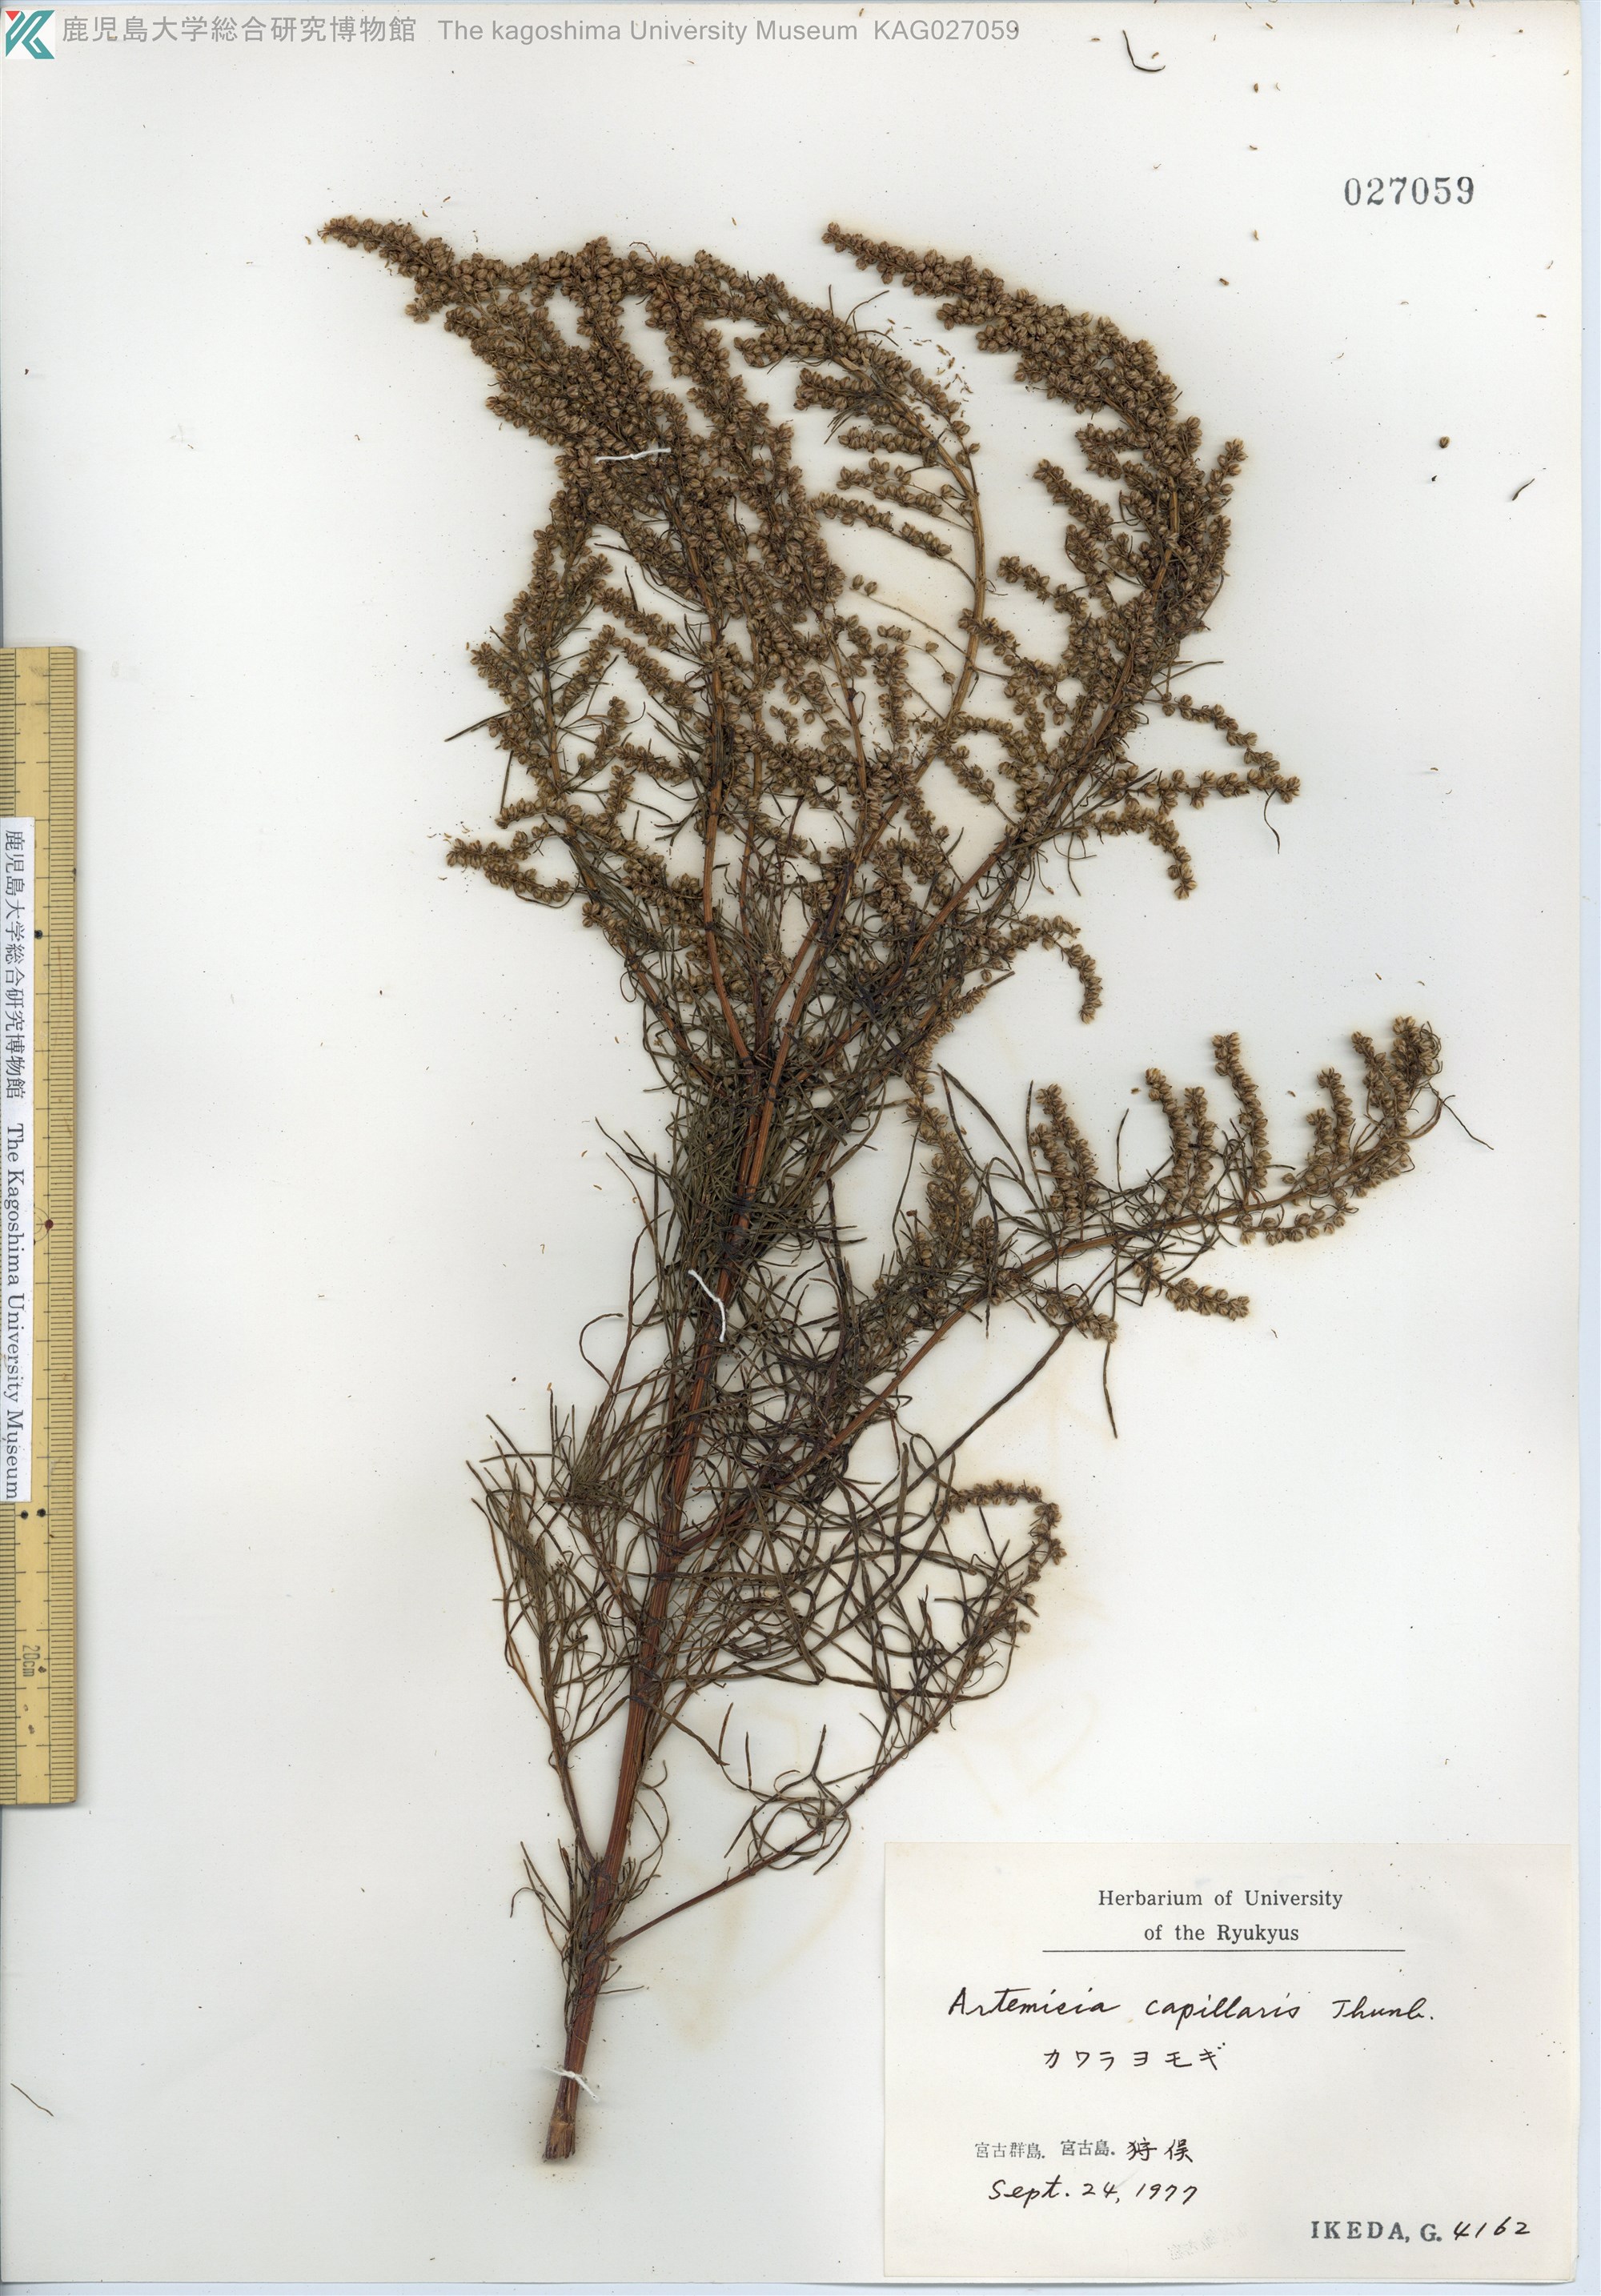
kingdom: Plantae
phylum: Tracheophyta
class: Magnoliopsida
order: Asterales
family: Asteraceae
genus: Artemisia
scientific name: Artemisia capillaris
